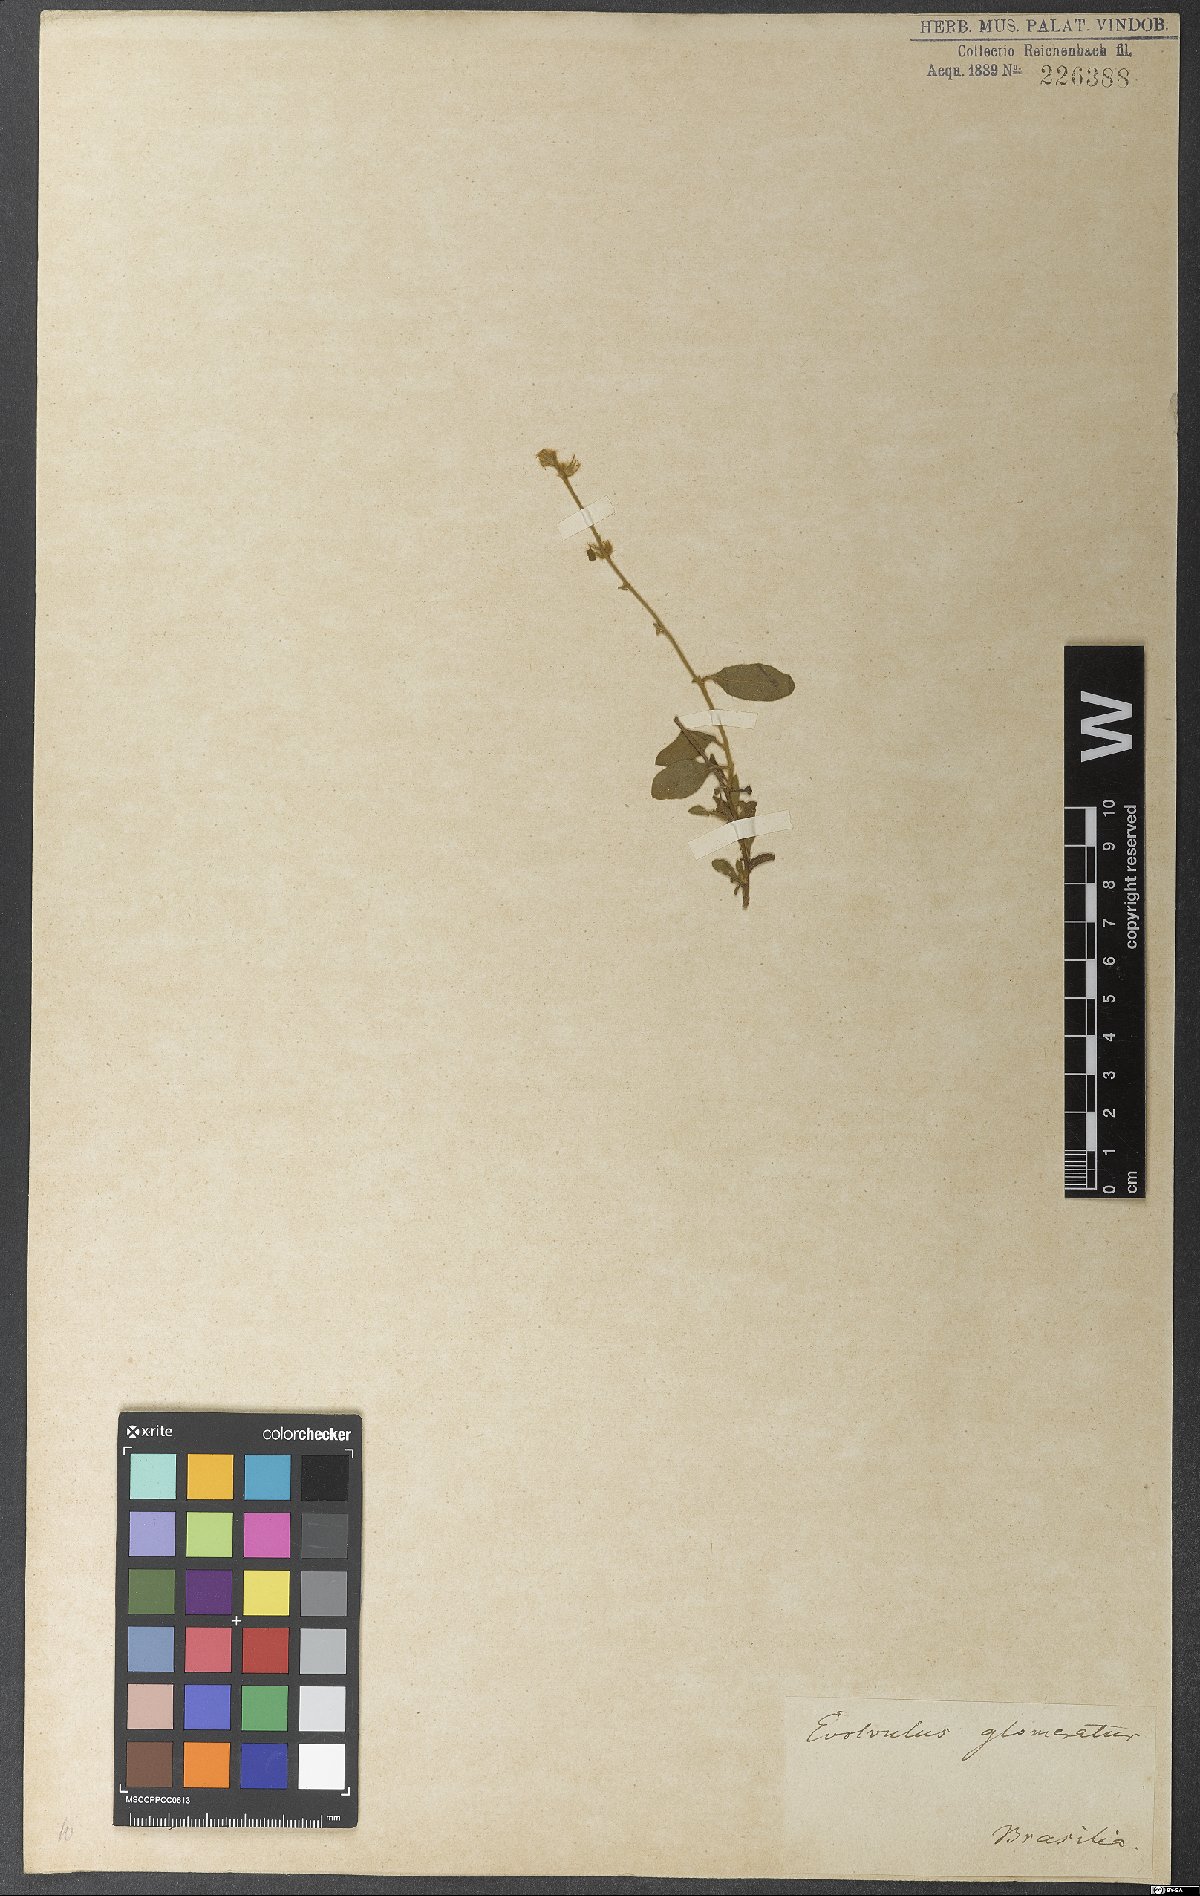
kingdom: Plantae
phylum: Tracheophyta
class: Magnoliopsida
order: Solanales
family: Convolvulaceae
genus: Evolvulus
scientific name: Evolvulus glomeratus
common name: Brazilian dwarf morning-glory
